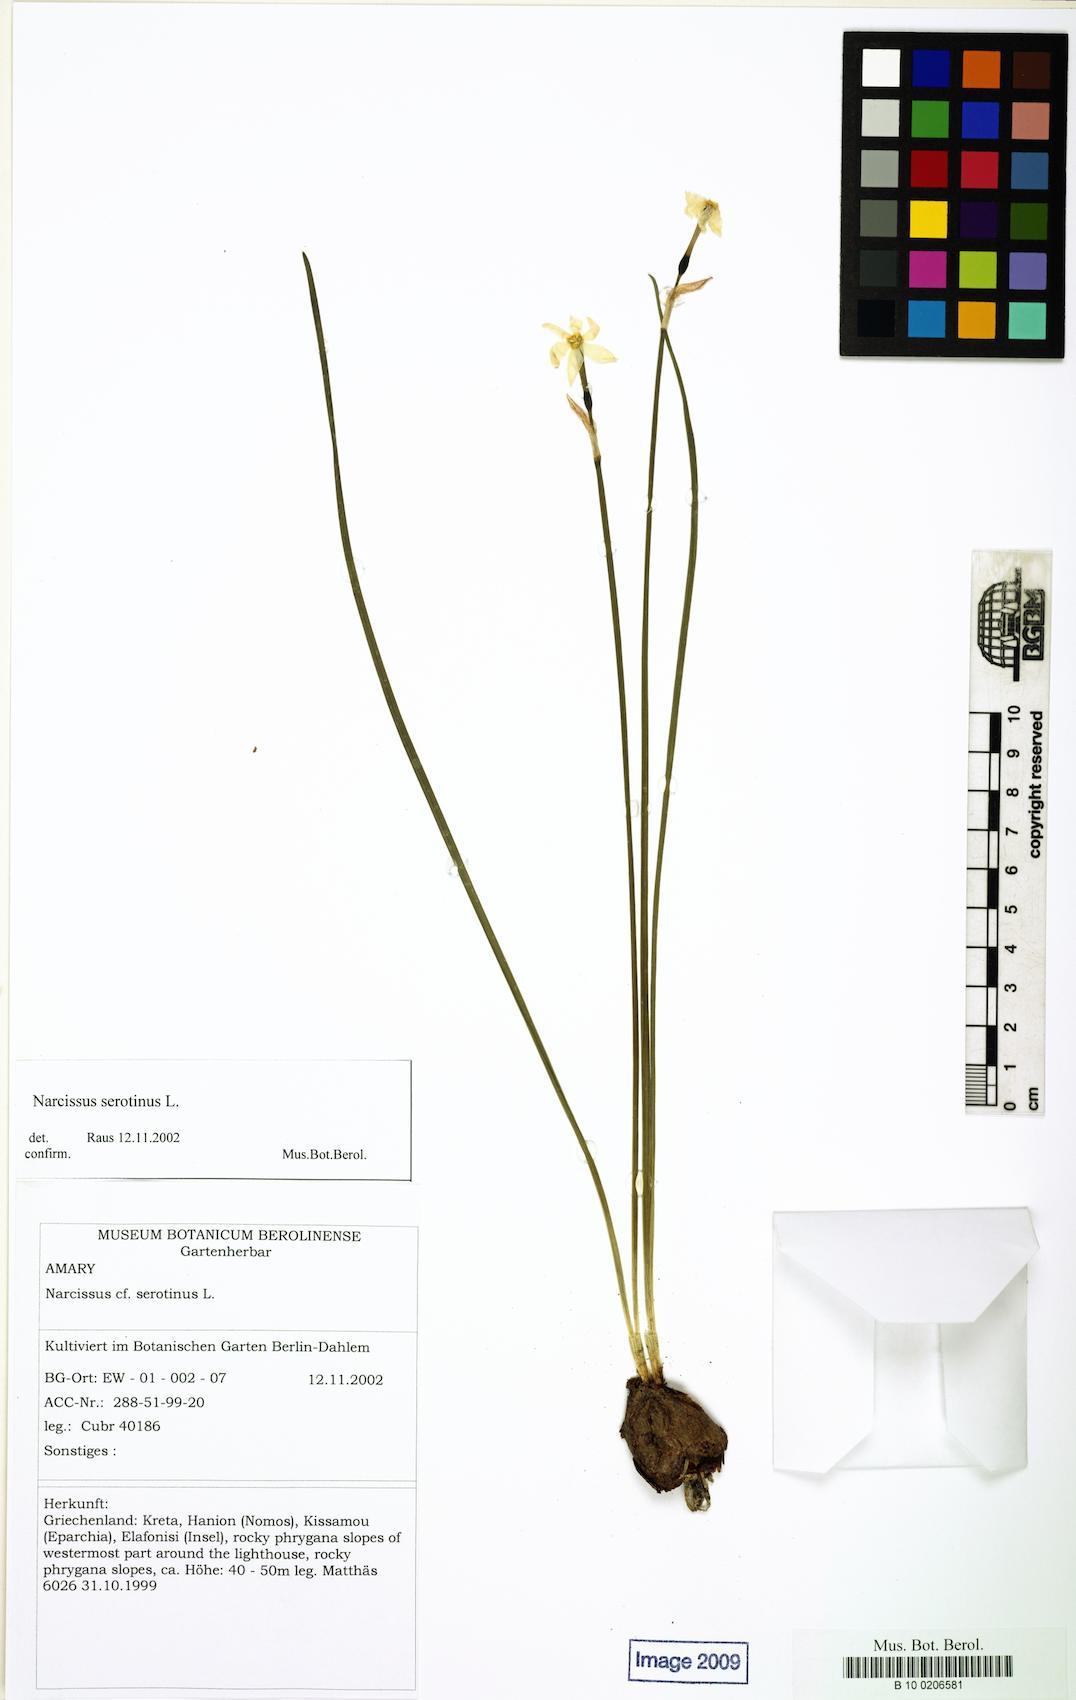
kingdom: Plantae
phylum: Tracheophyta
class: Liliopsida
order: Asparagales
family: Amaryllidaceae
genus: Narcissus
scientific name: Narcissus serotinus
